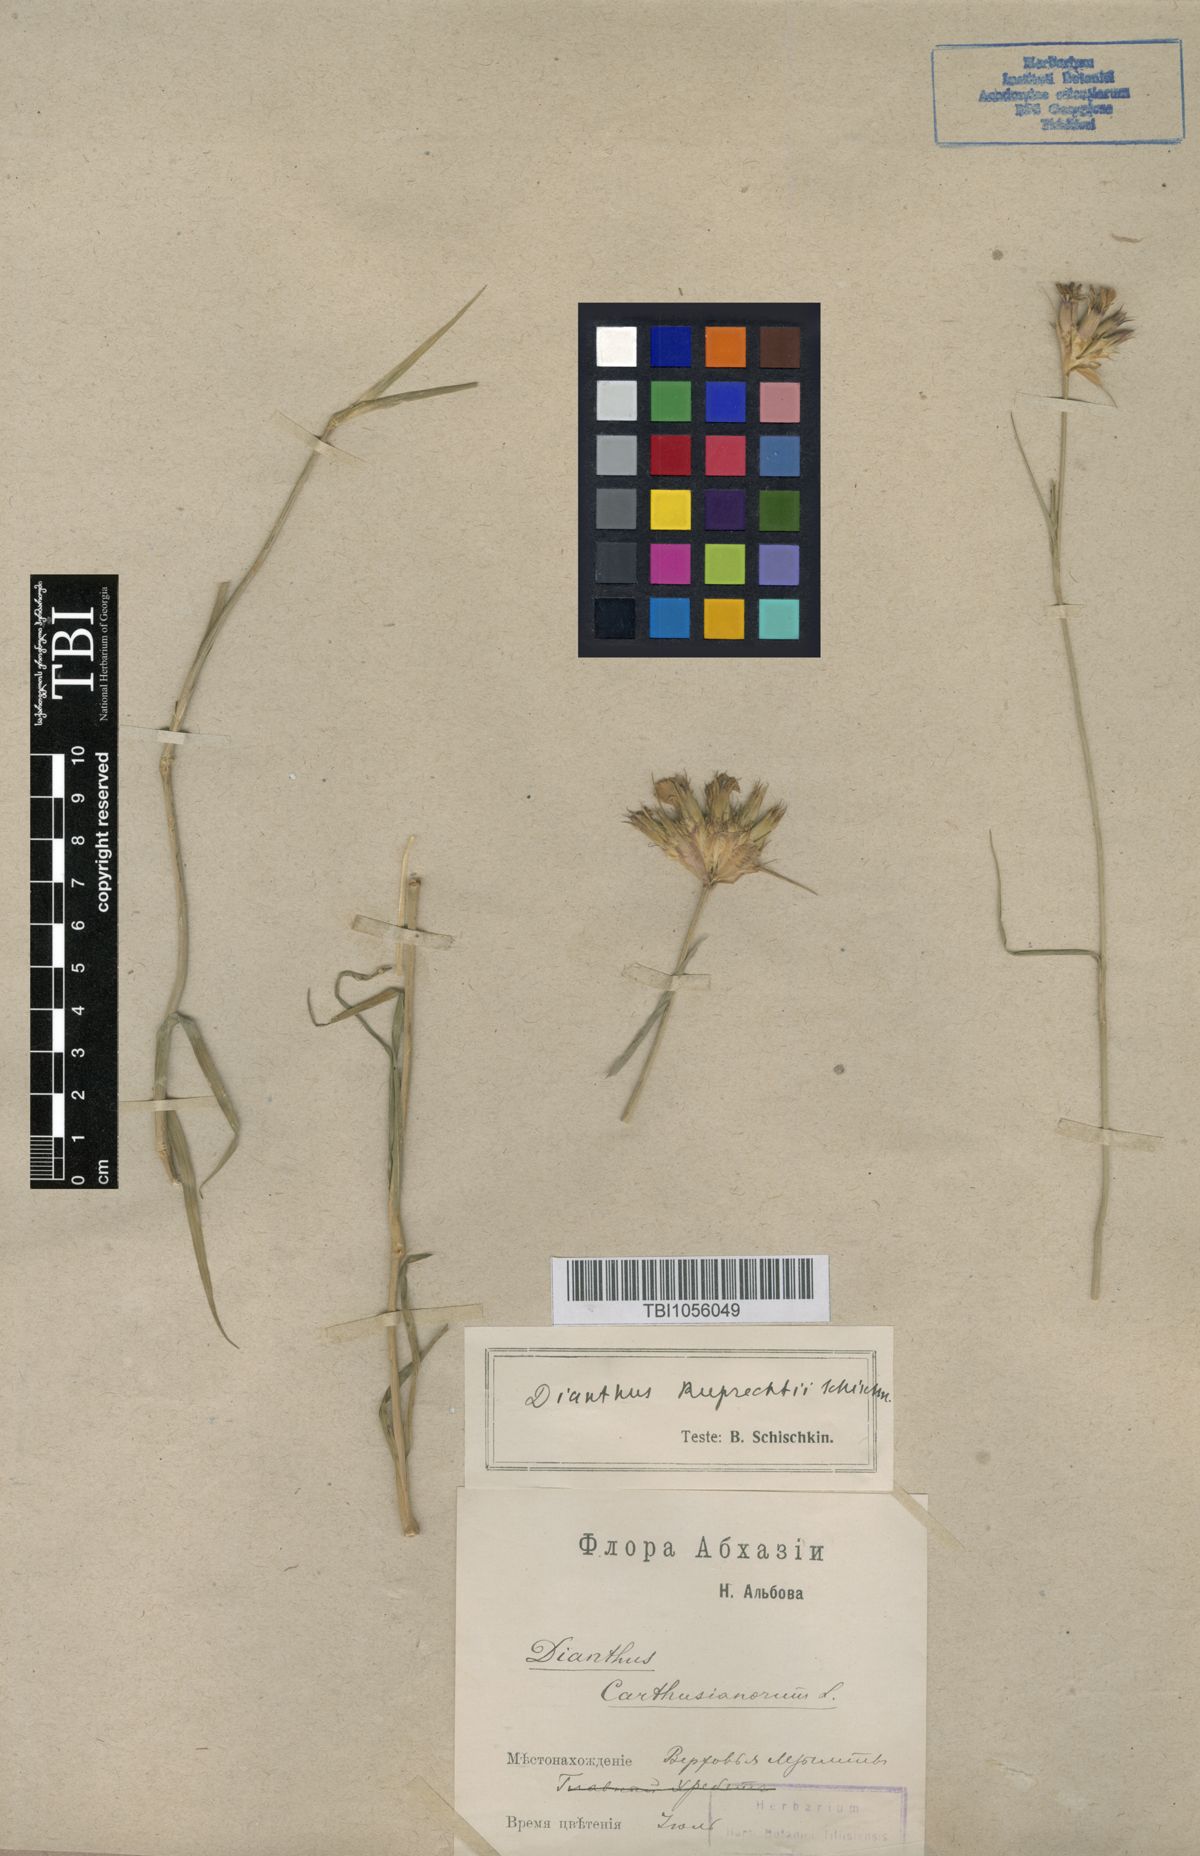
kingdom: Plantae
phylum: Tracheophyta
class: Magnoliopsida
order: Caryophyllales
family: Caryophyllaceae
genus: Dianthus
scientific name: Dianthus ruprechtii
